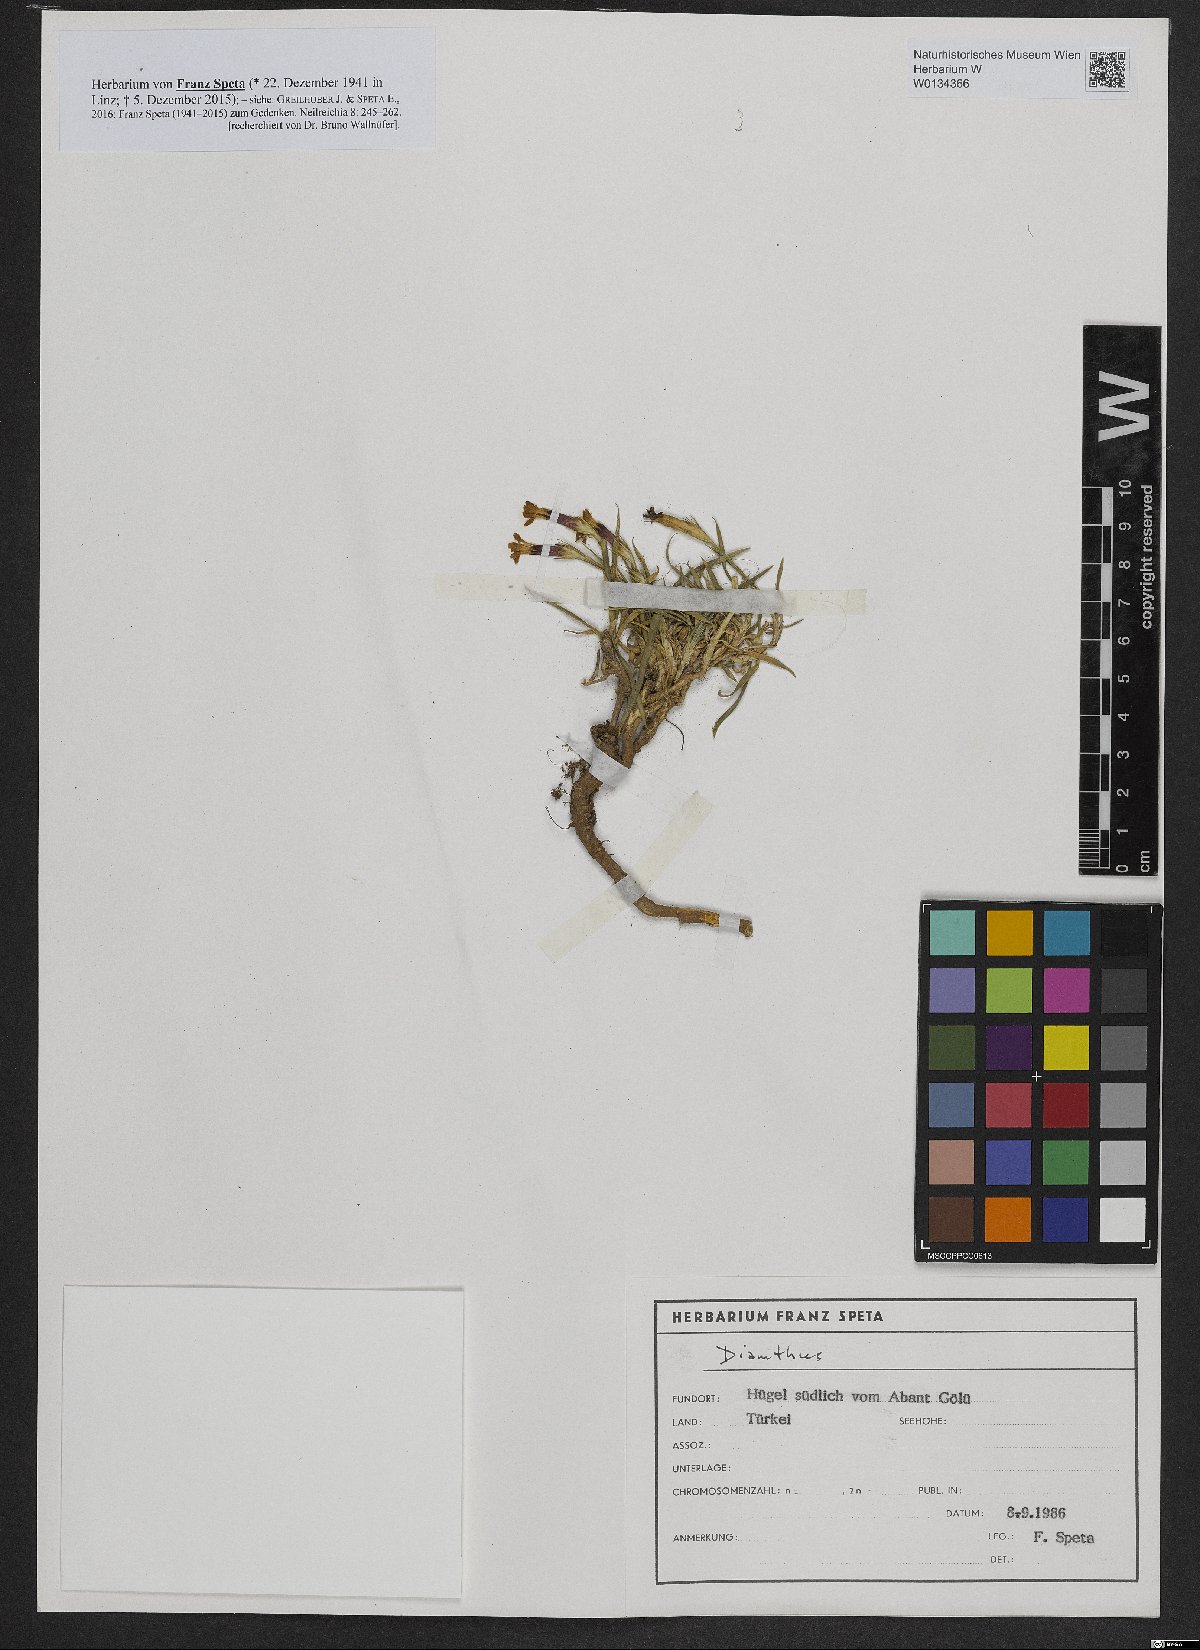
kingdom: Plantae
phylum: Tracheophyta
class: Magnoliopsida
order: Caryophyllales
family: Caryophyllaceae
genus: Dianthus
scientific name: Dianthus
